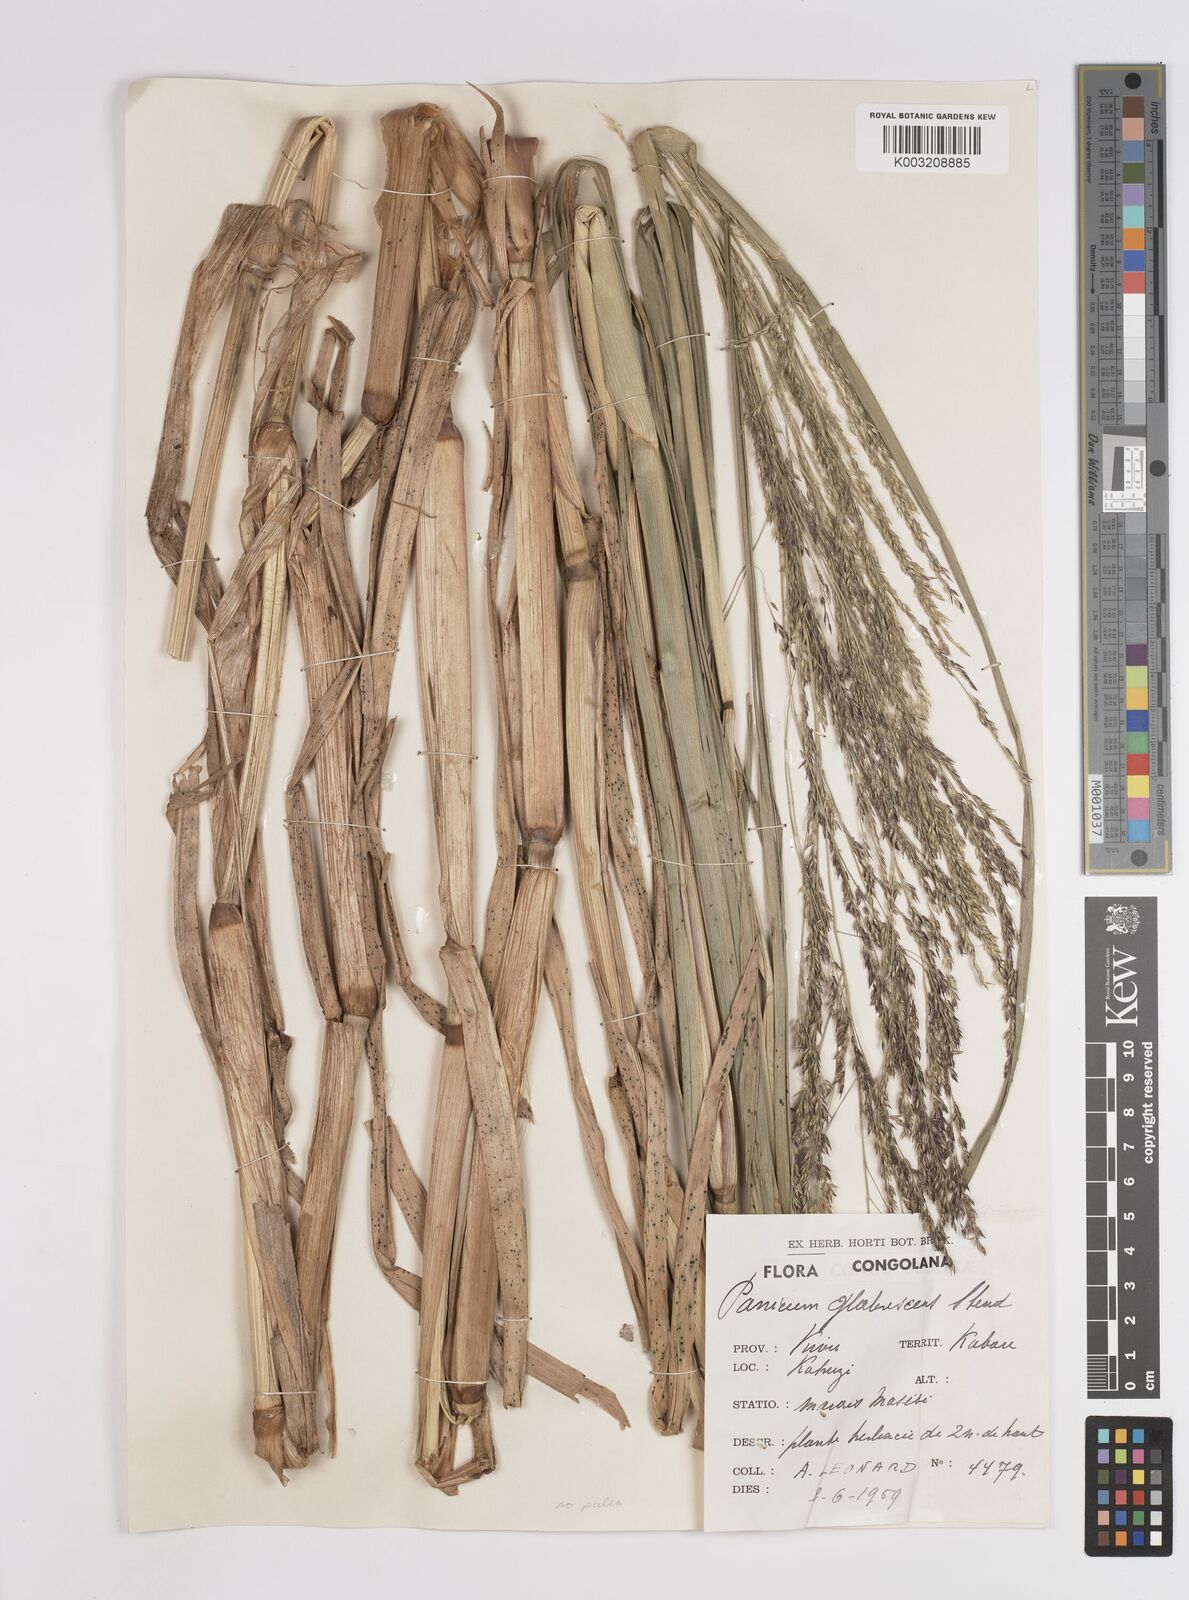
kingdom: Plantae
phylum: Tracheophyta
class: Liliopsida
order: Poales
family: Poaceae
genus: Panicum
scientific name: Panicum subalbidum
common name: Elbow buffalo grass
